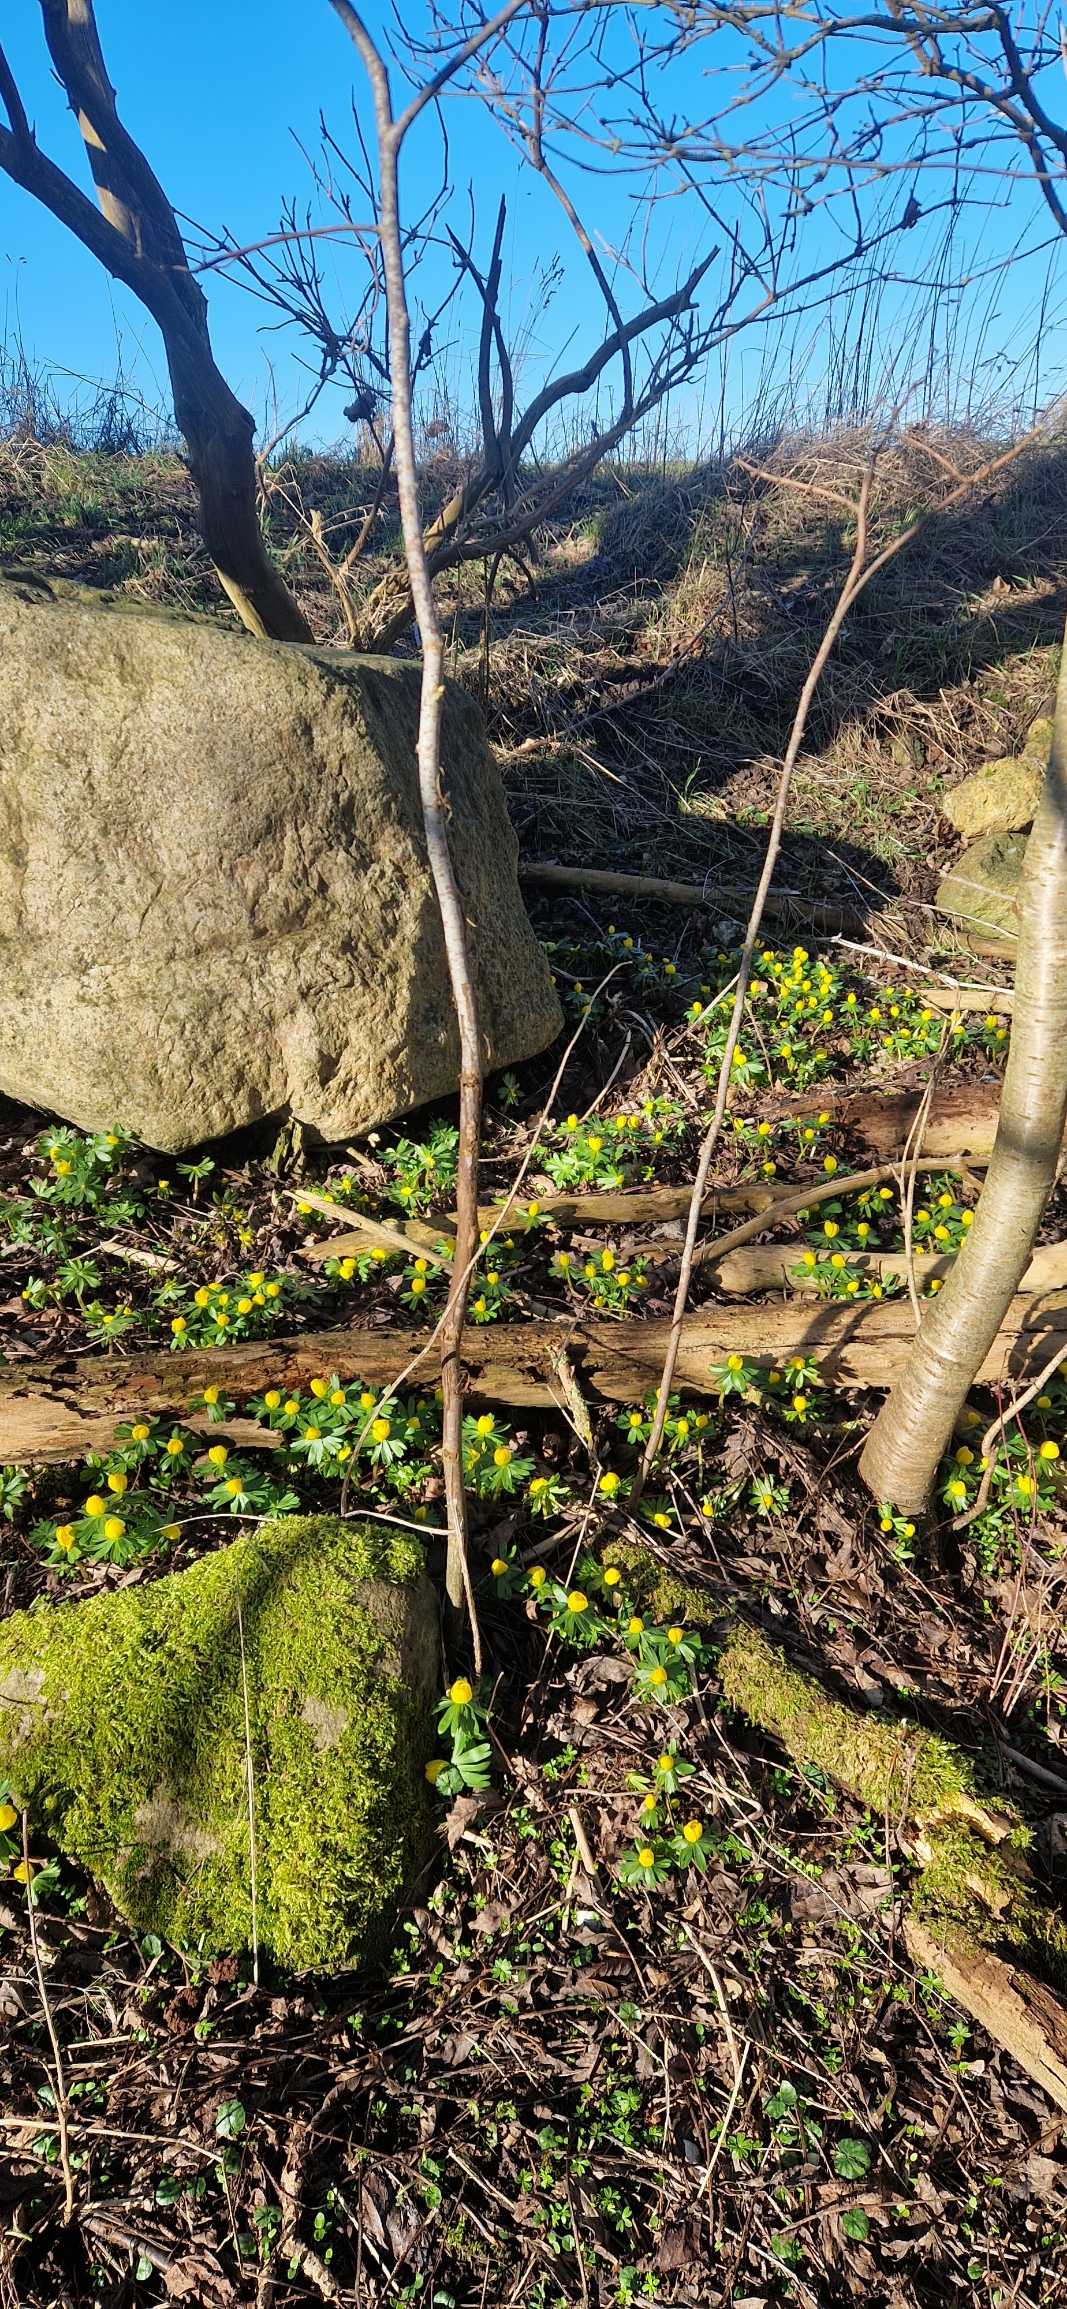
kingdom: Plantae
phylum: Tracheophyta
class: Magnoliopsida
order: Ranunculales
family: Ranunculaceae
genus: Eranthis
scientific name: Eranthis hyemalis
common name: Erantis
